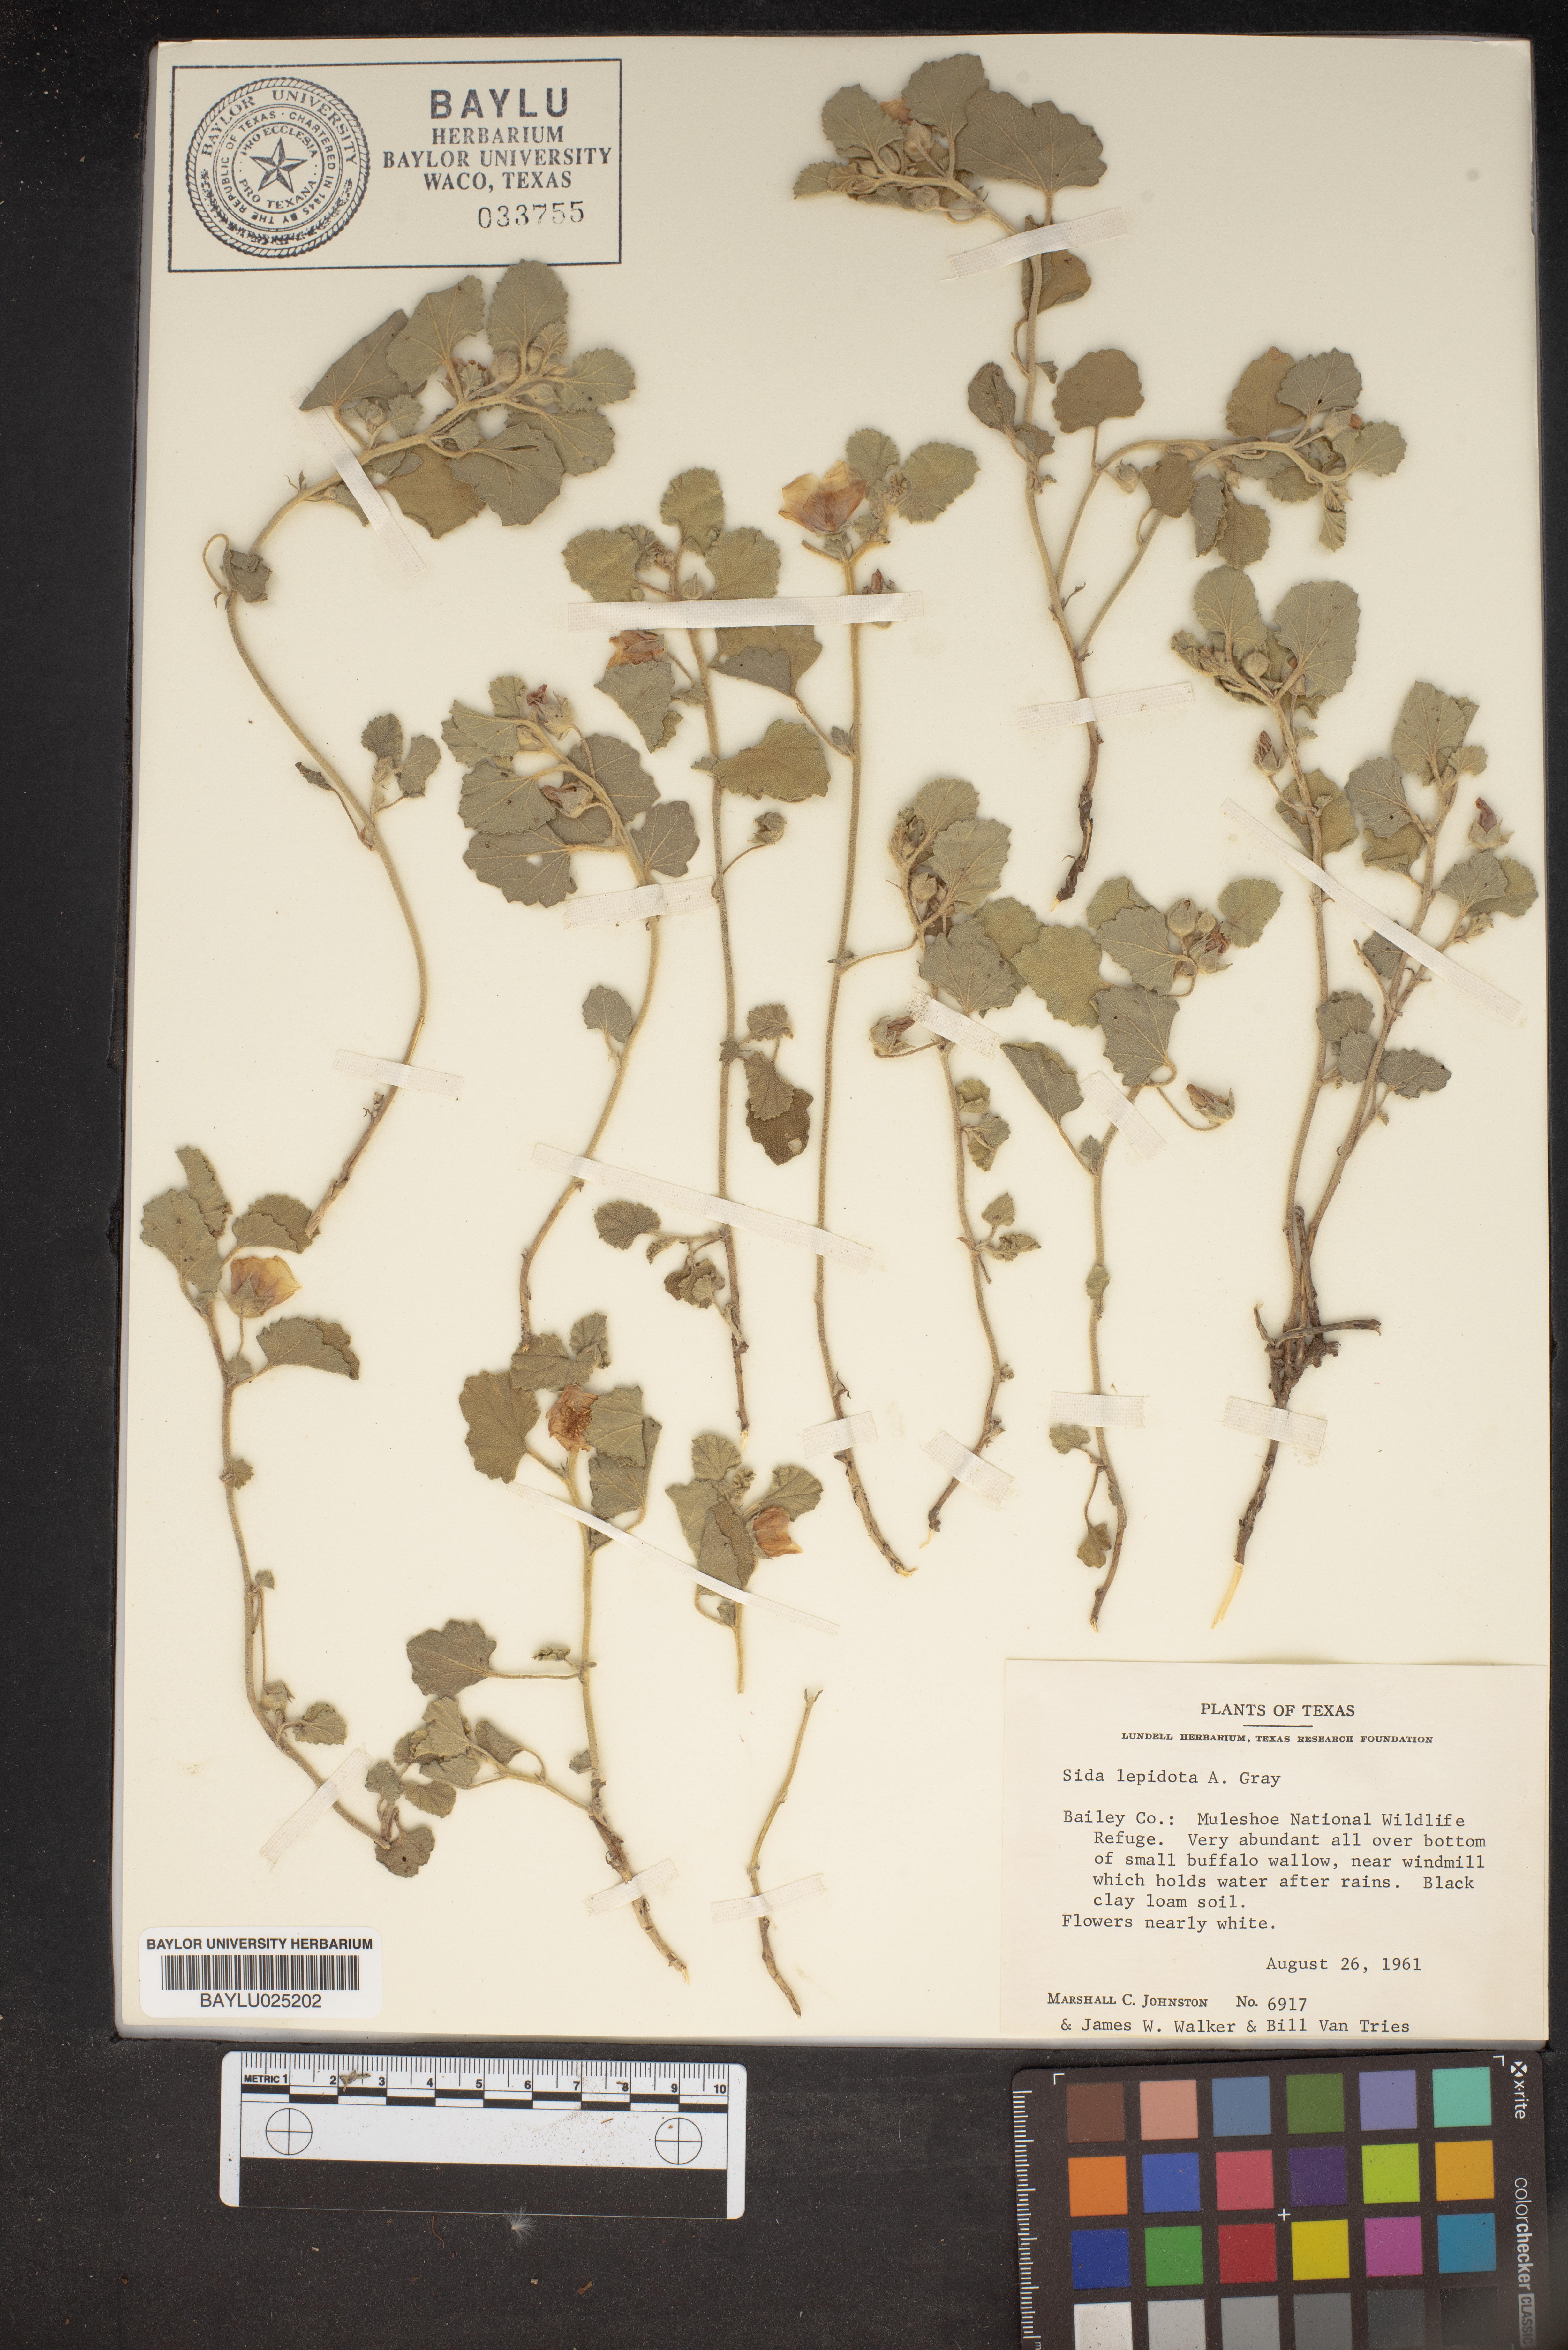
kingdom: Plantae
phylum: Tracheophyta
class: Magnoliopsida
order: Malvales
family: Malvaceae
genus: Malvella
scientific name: Malvella lepidota
